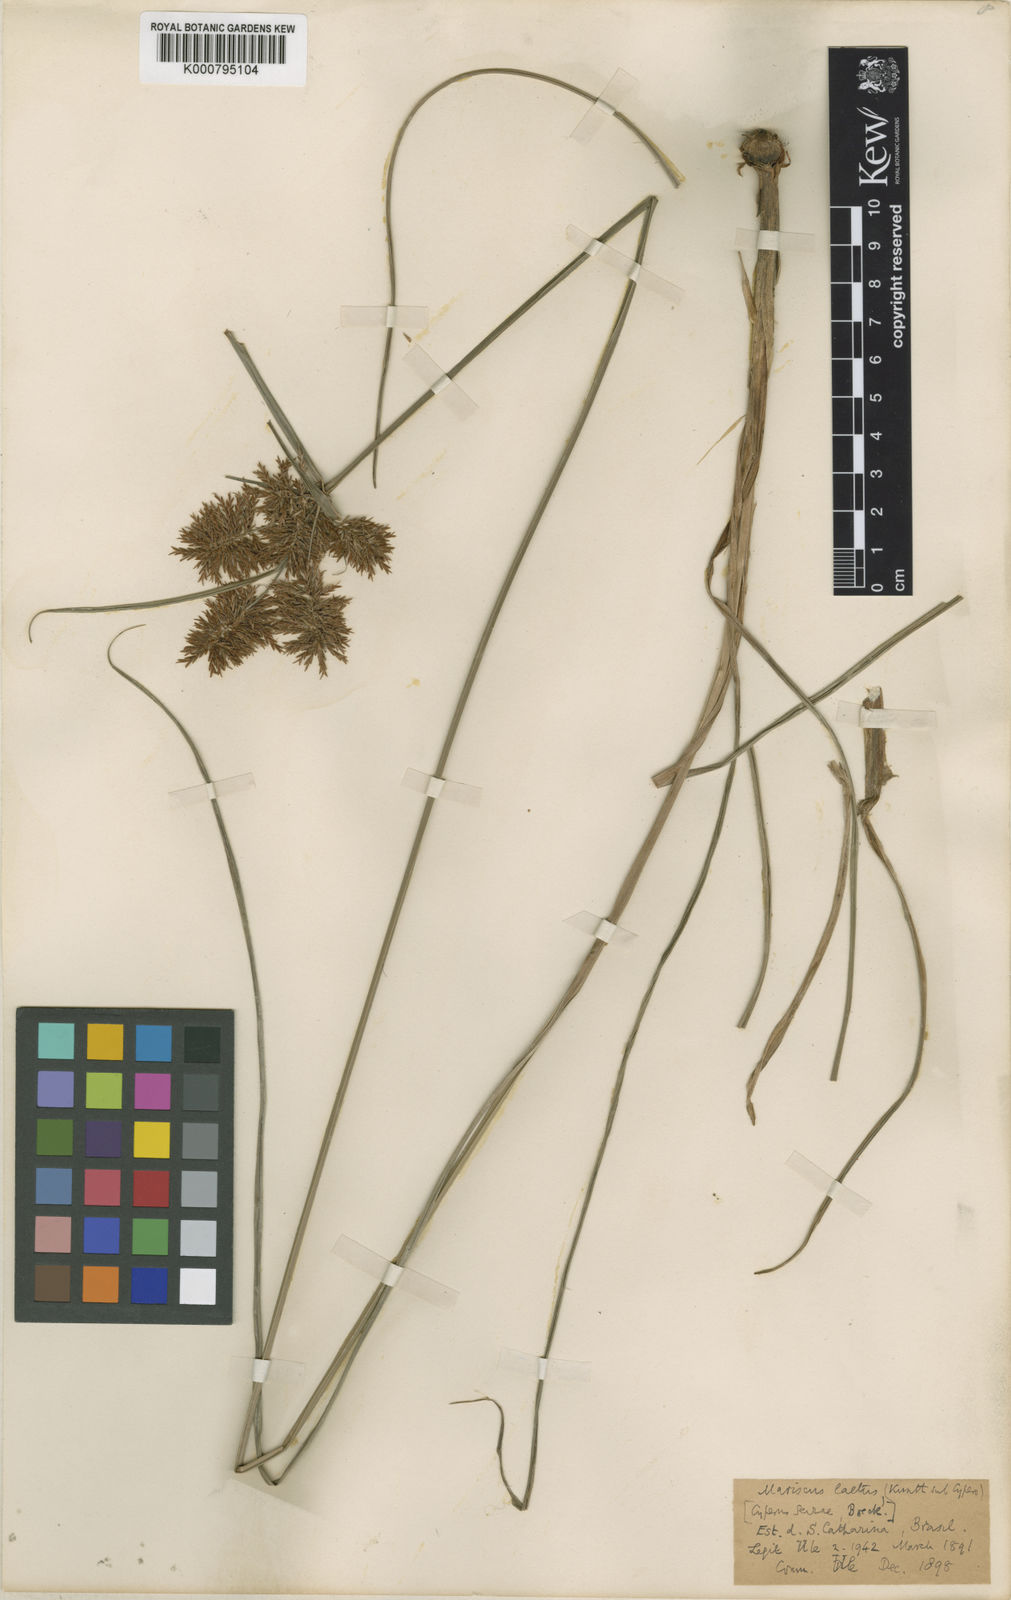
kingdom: Plantae
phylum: Tracheophyta
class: Liliopsida
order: Poales
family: Cyperaceae
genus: Cyperus
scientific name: Cyperus rigens
